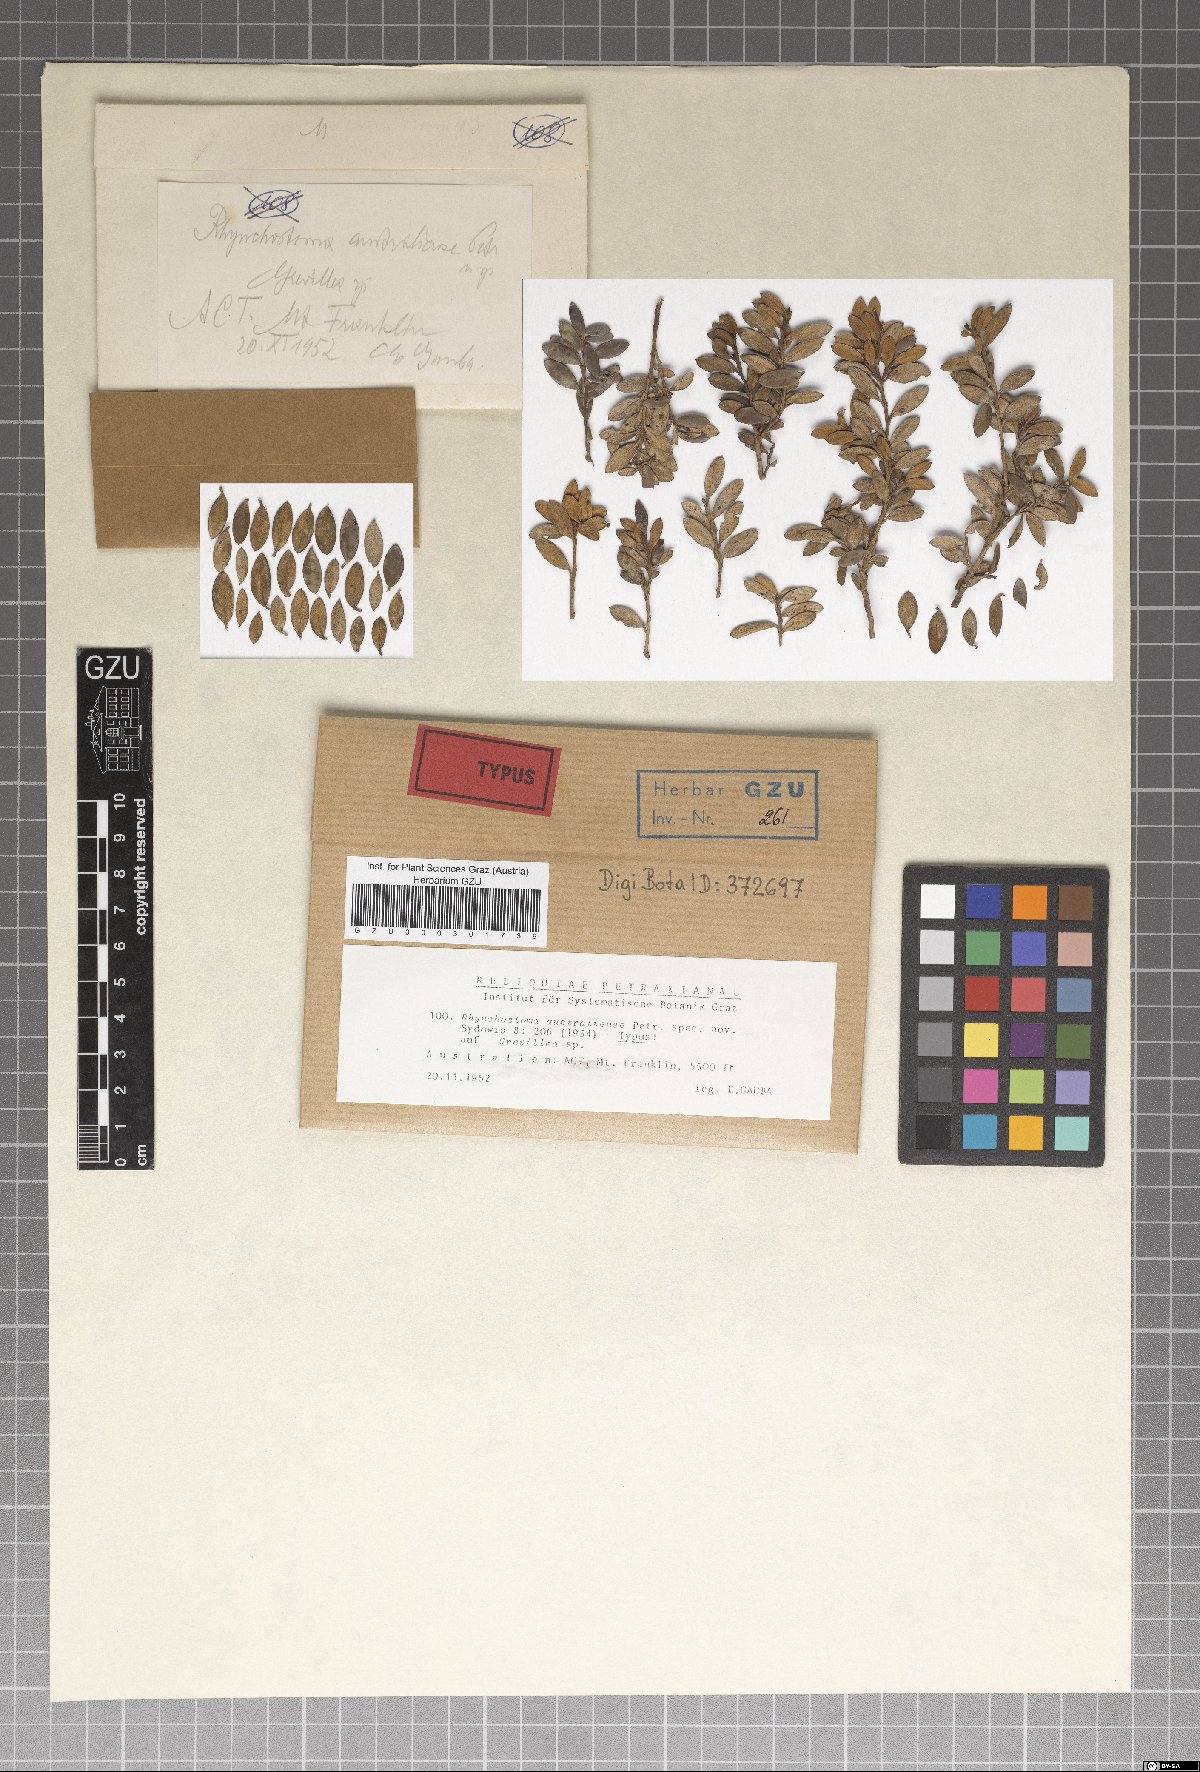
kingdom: Fungi
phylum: Ascomycota
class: Eurotiomycetes
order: Chaetothyriales
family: Rhynchostomataceae
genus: Rhynchostoma
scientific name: Rhynchostoma australiense
